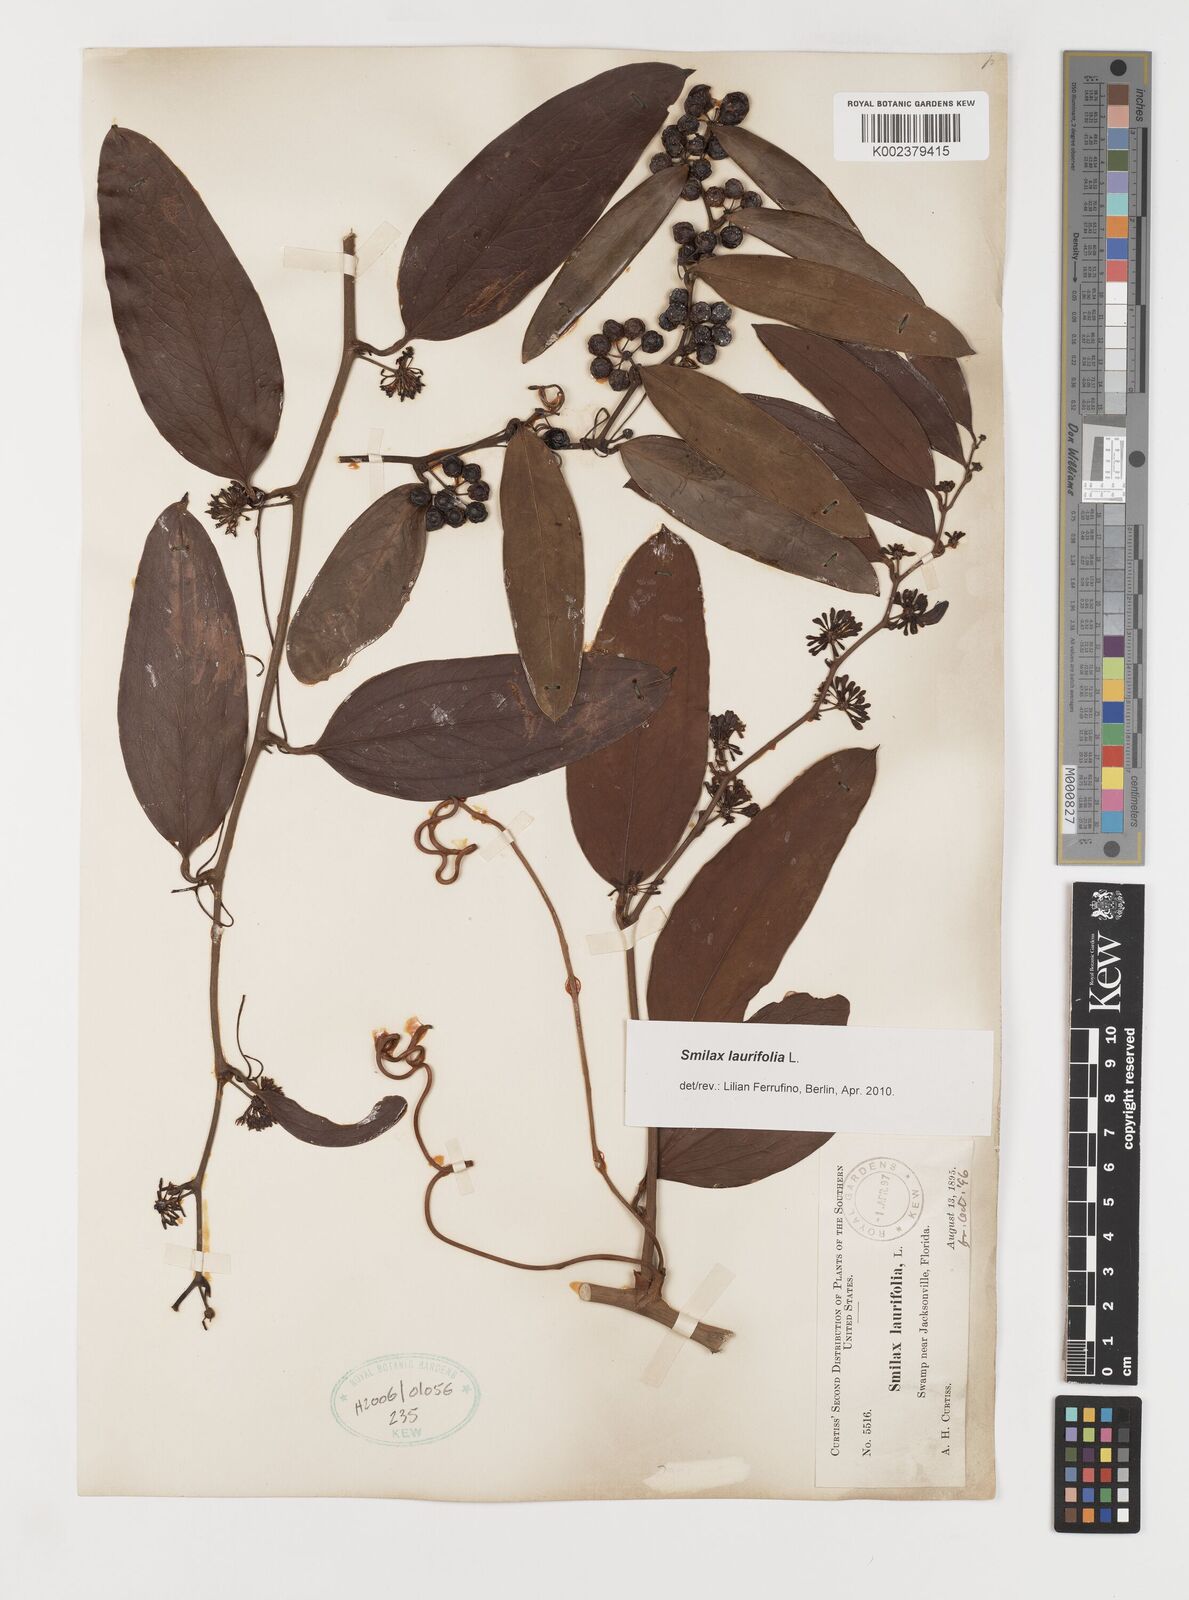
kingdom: Plantae
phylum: Tracheophyta
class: Liliopsida
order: Liliales
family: Smilacaceae
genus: Smilax
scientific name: Smilax laurifolia
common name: Bamboovine
